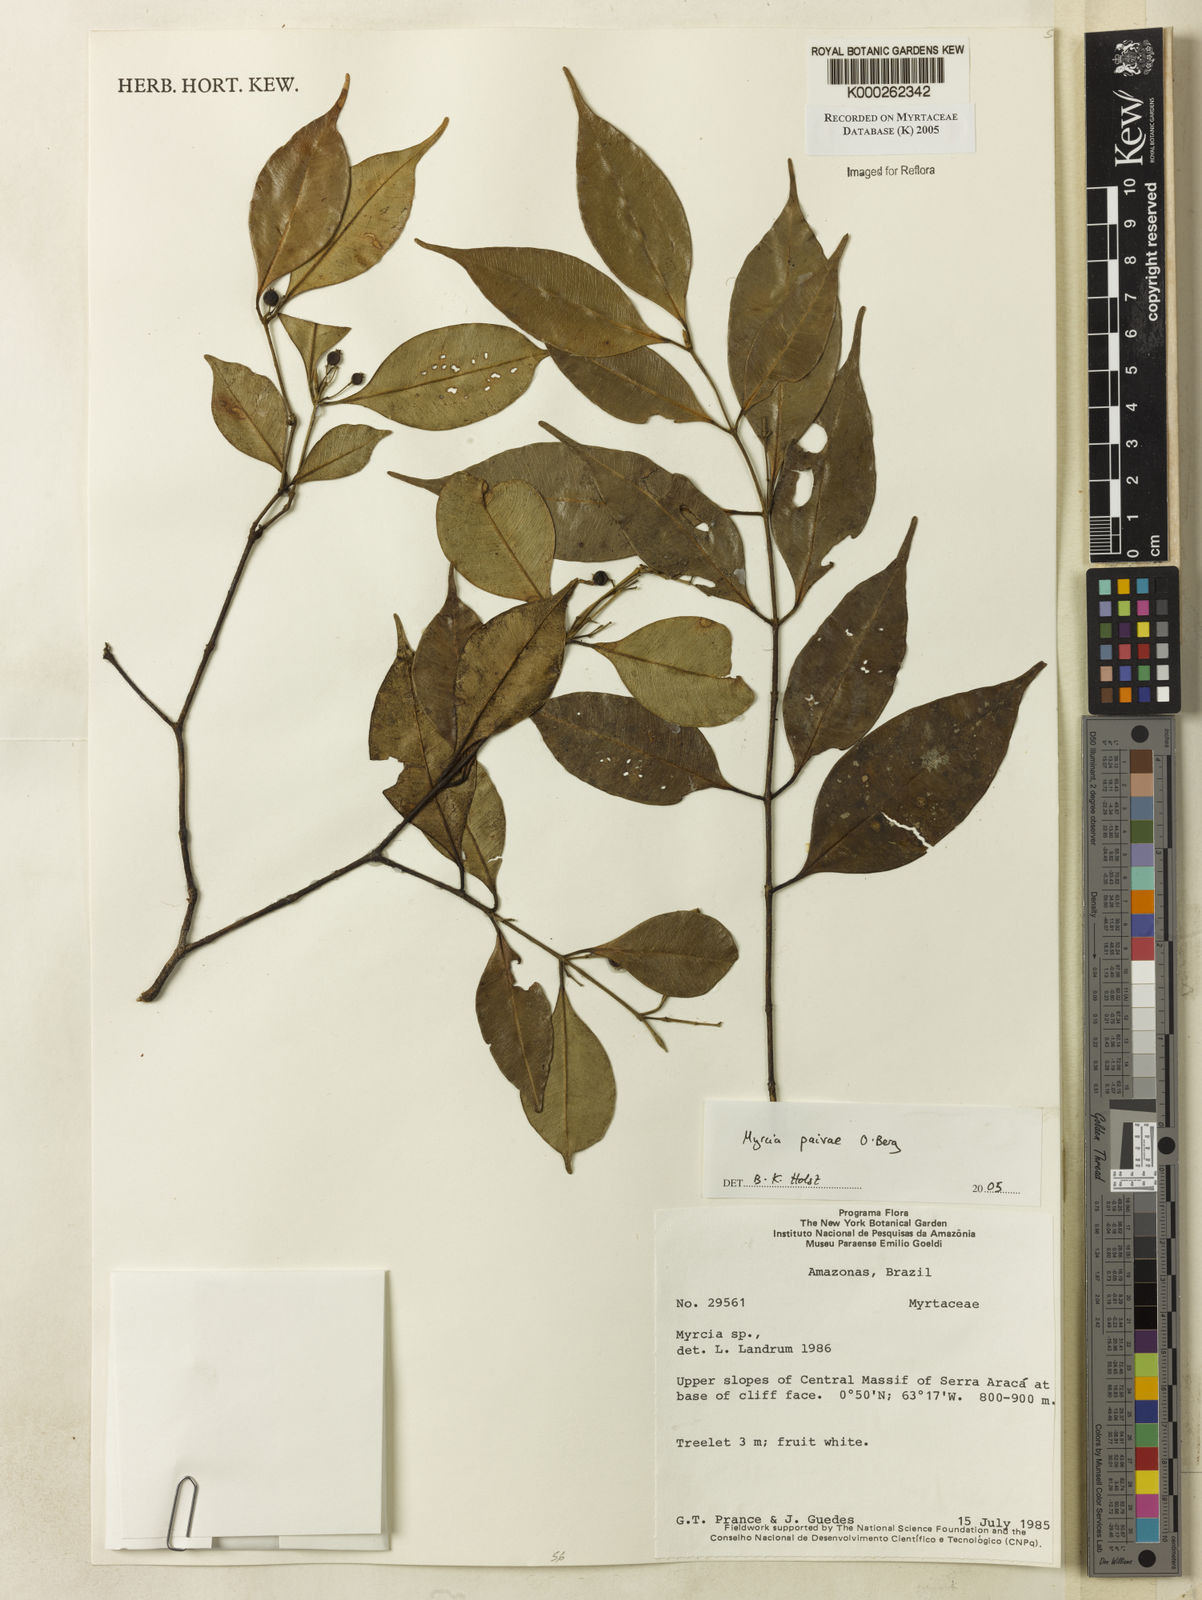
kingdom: Plantae
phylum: Tracheophyta
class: Magnoliopsida
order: Myrtales
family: Myrtaceae
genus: Myrcia
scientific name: Myrcia paivae
